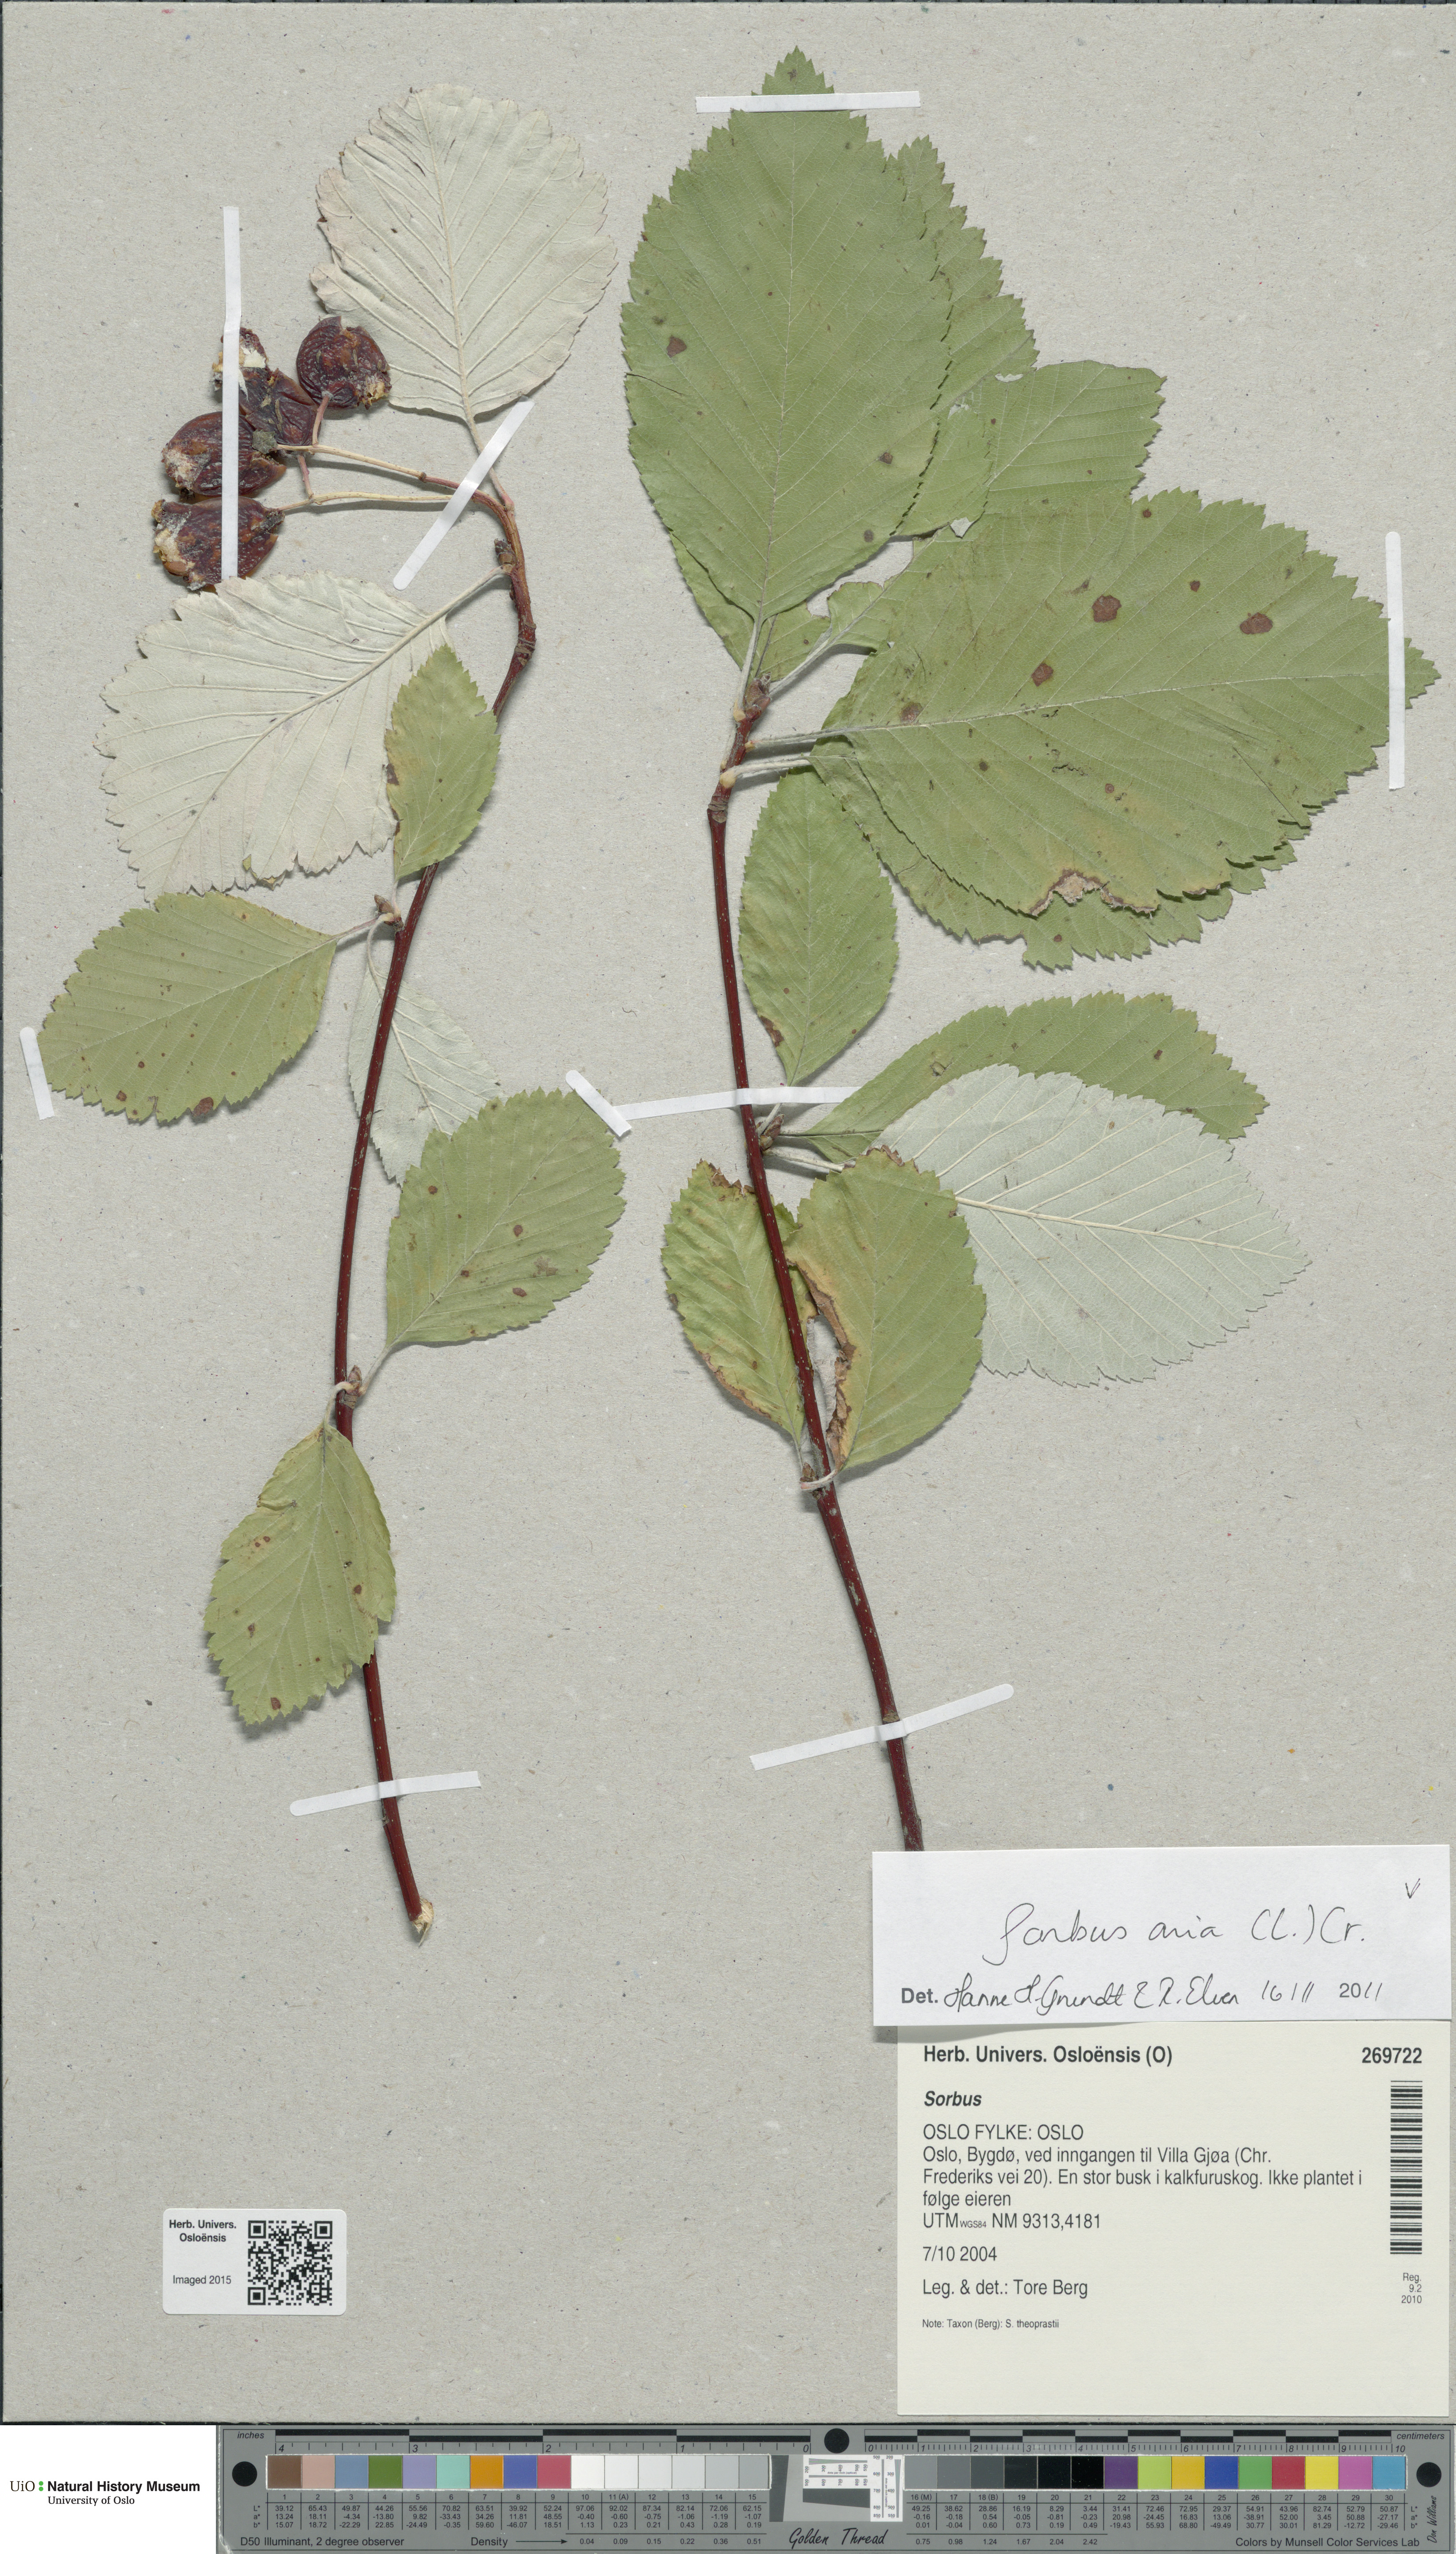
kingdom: Plantae
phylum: Tracheophyta
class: Magnoliopsida
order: Rosales
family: Rosaceae
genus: Aria
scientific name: Aria edulis
